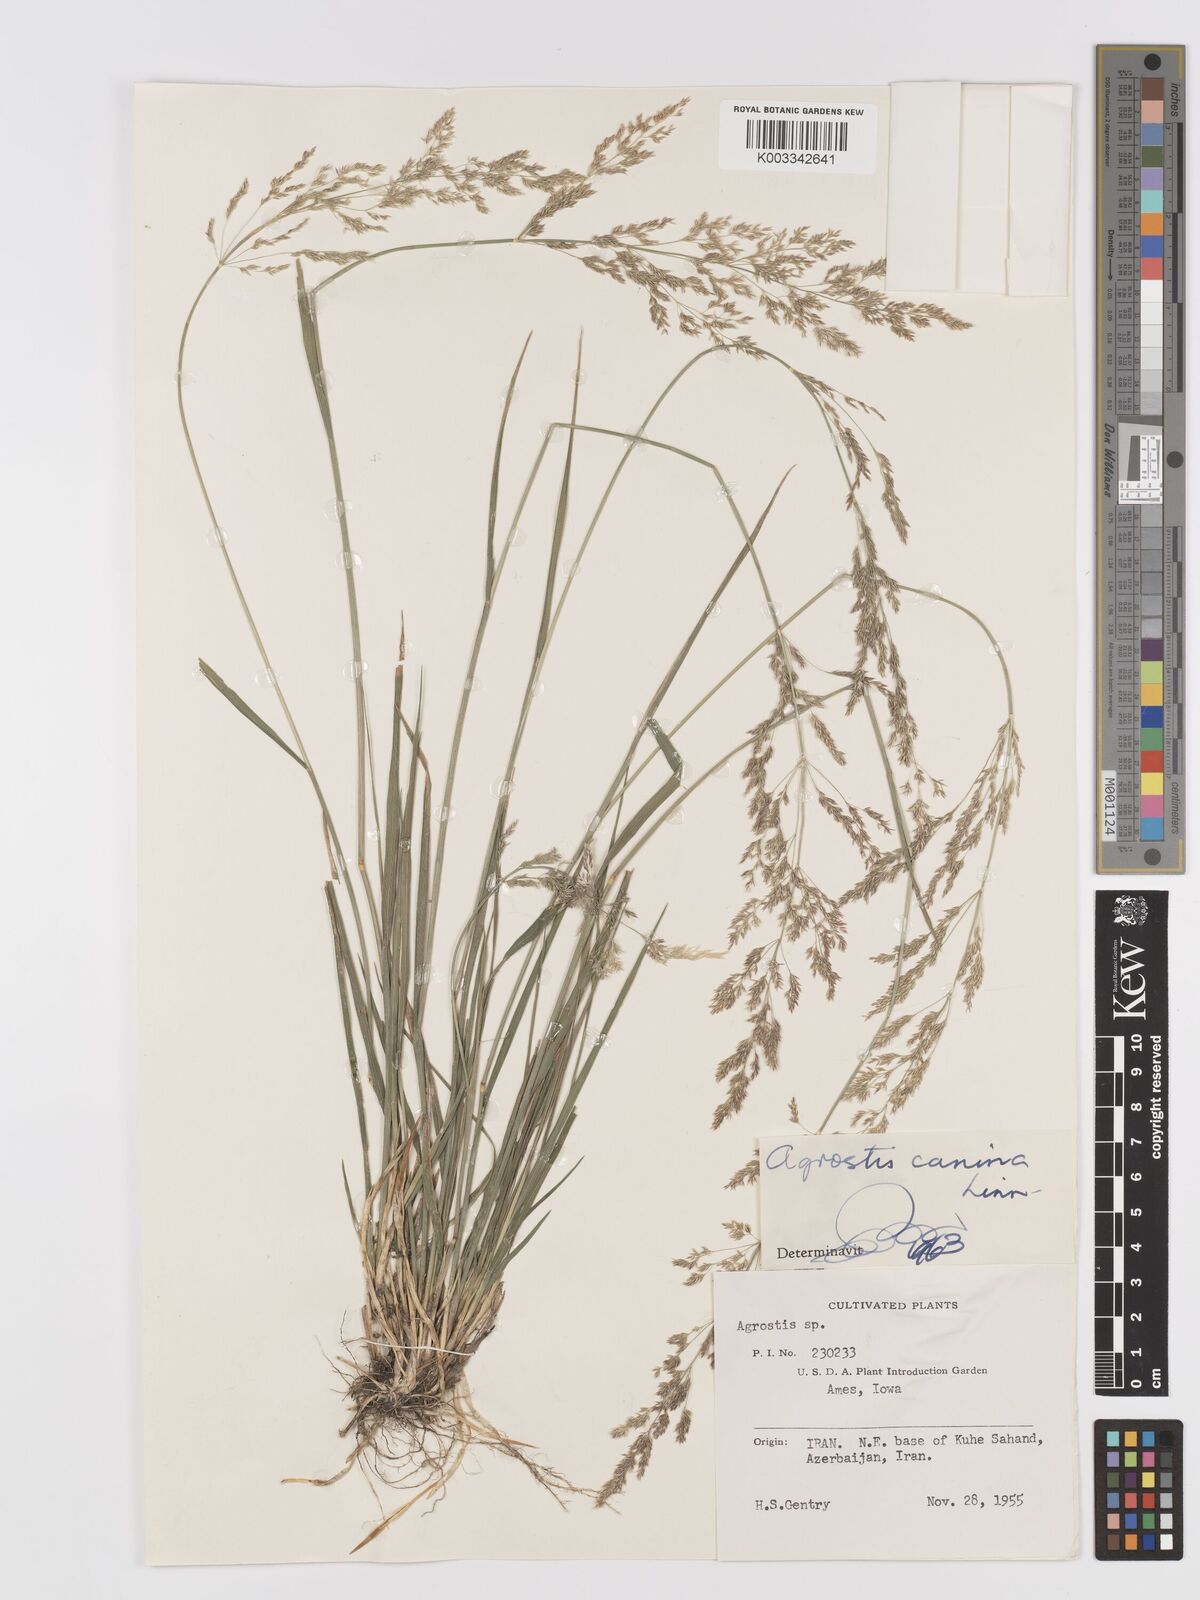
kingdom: Plantae
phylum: Tracheophyta
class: Liliopsida
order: Poales
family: Poaceae
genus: Agrostis
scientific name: Agrostis canina
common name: Velvet bent
